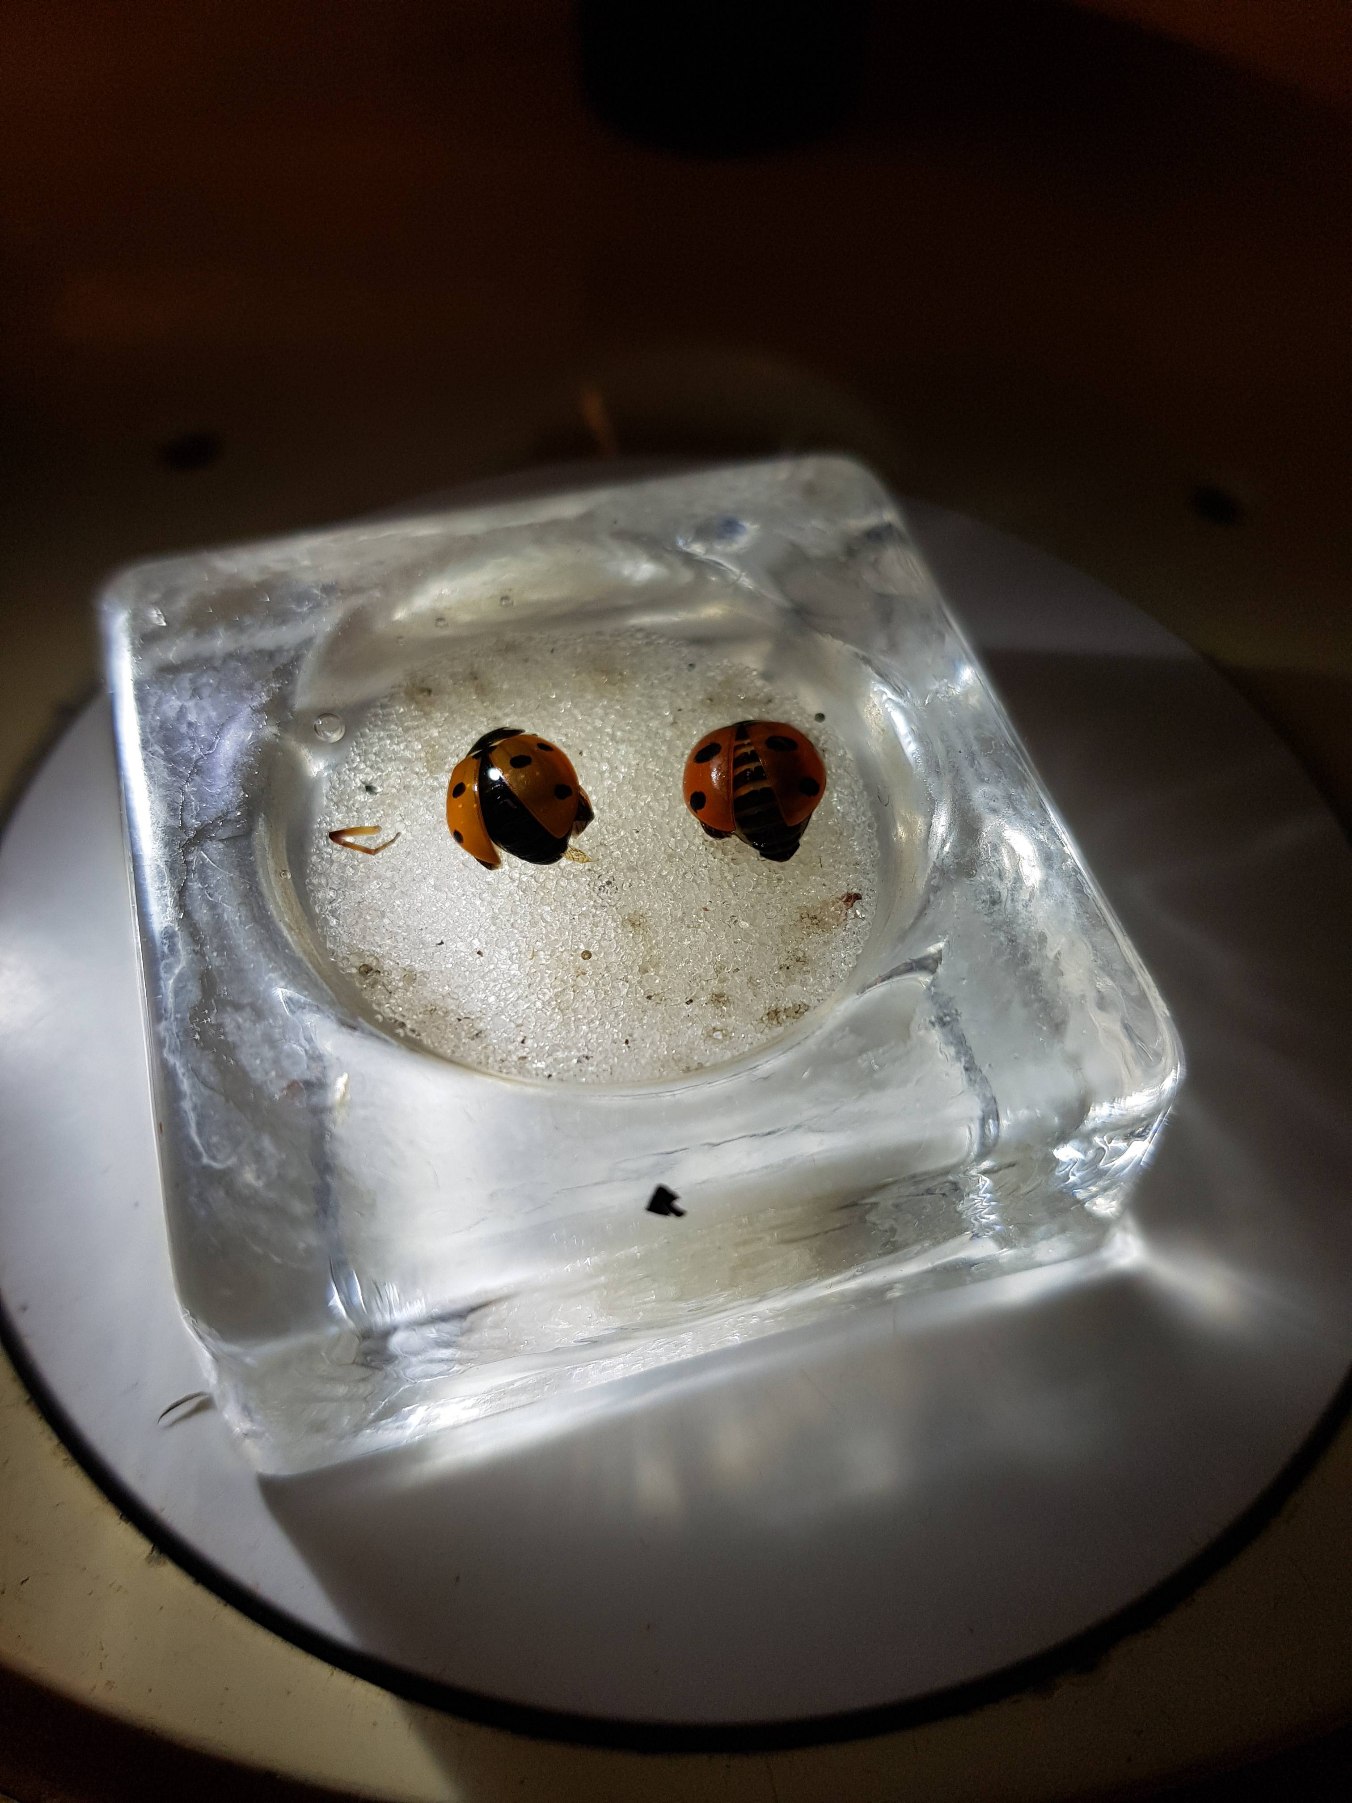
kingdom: Animalia
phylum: Arthropoda
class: Insecta
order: Coleoptera
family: Coccinellidae
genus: Coccinella
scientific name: Coccinella septempunctata
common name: Syvplettet mariehøne
